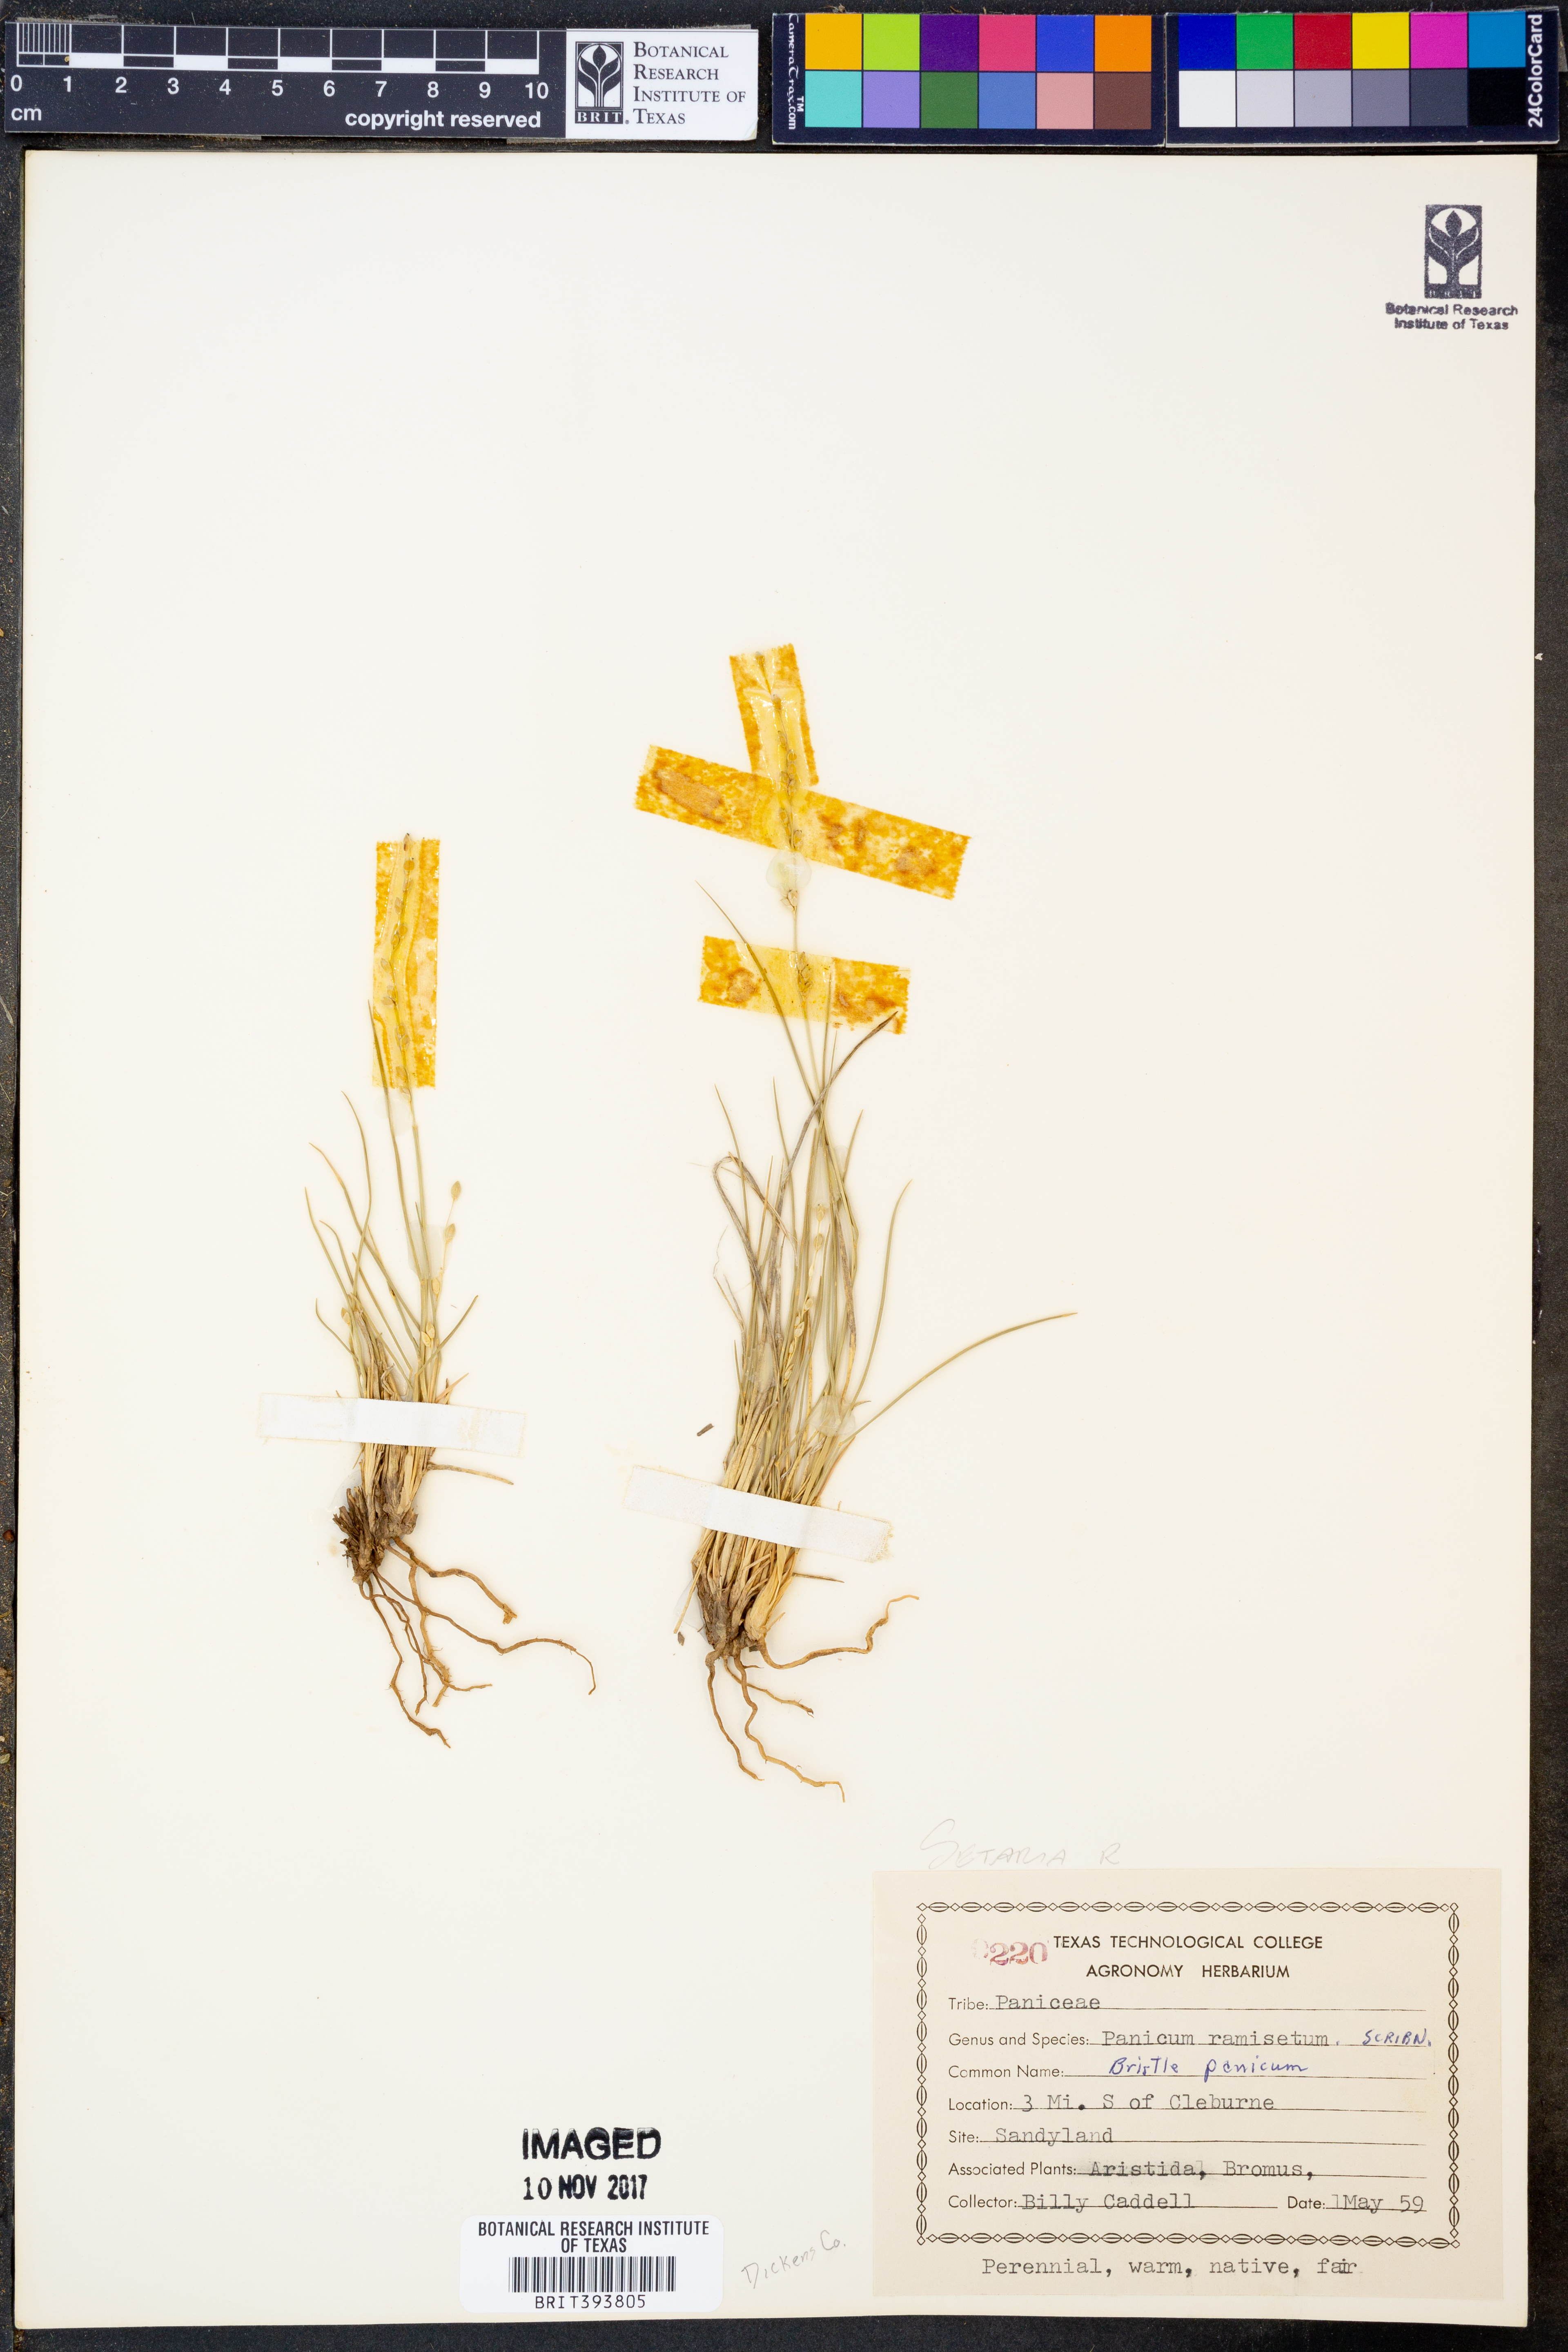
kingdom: Plantae
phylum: Tracheophyta
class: Liliopsida
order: Poales
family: Poaceae
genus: Setaria
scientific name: Setaria reverchonii
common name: Reverchon's bristle grass
